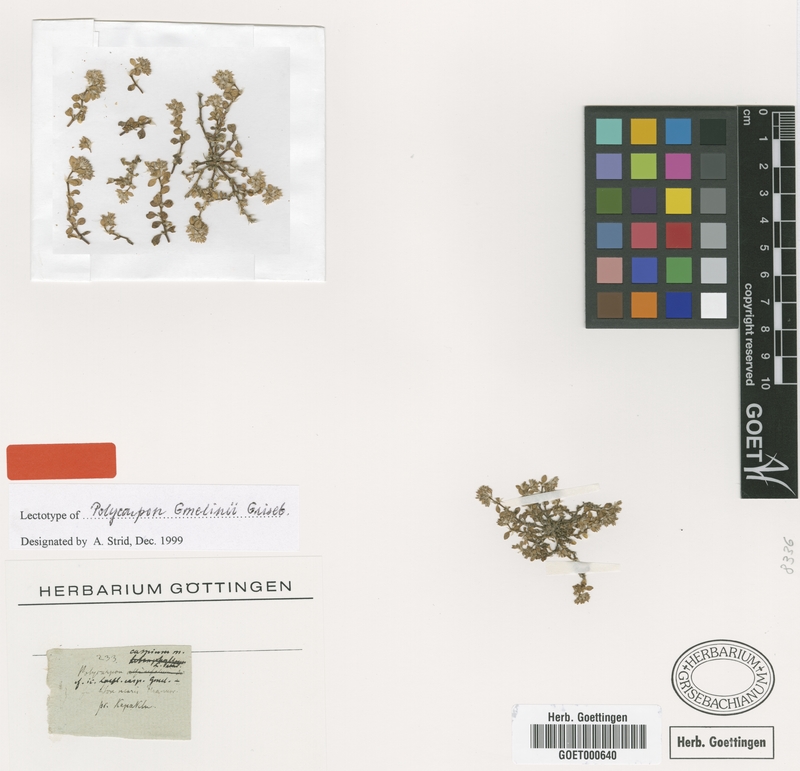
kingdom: Plantae
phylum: Tracheophyta
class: Magnoliopsida
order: Caryophyllales
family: Caryophyllaceae
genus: Polycarpon
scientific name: Polycarpon tetraphyllum
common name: Four-leaved all-seed
